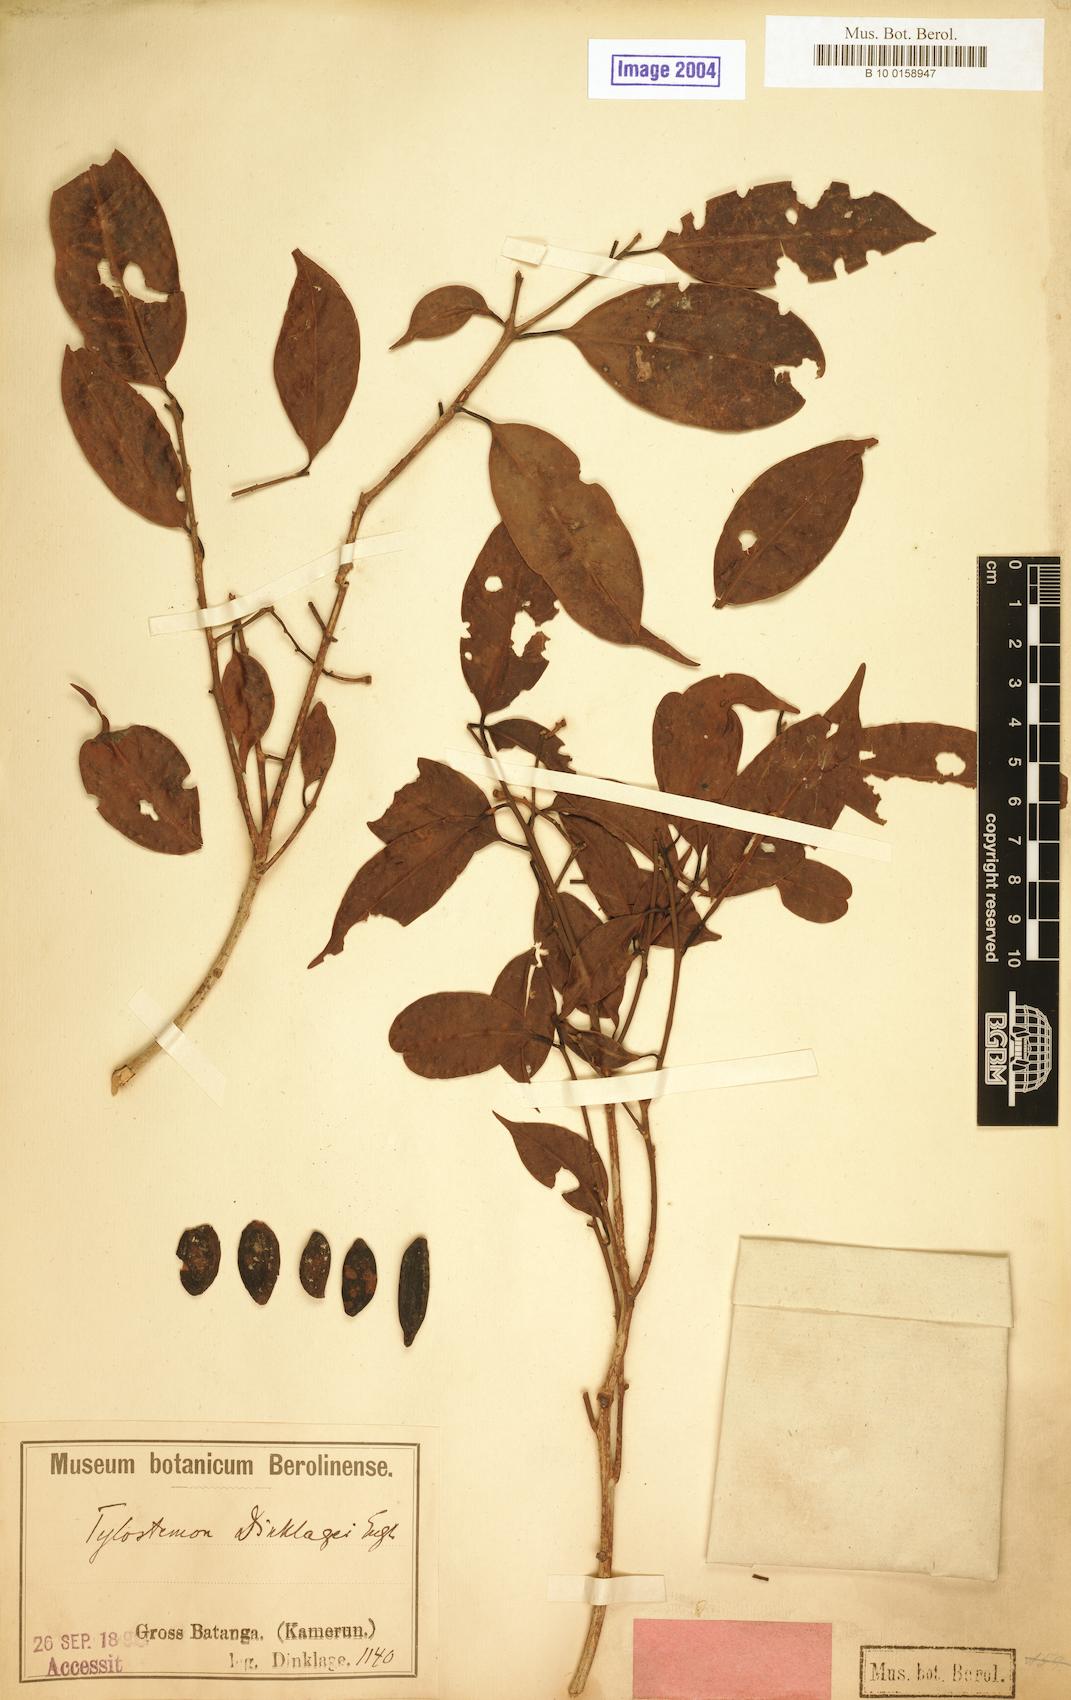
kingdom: Plantae
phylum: Tracheophyta
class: Magnoliopsida
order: Laurales
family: Lauraceae
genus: Beilschmiedia
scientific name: Beilschmiedia dinklagei
